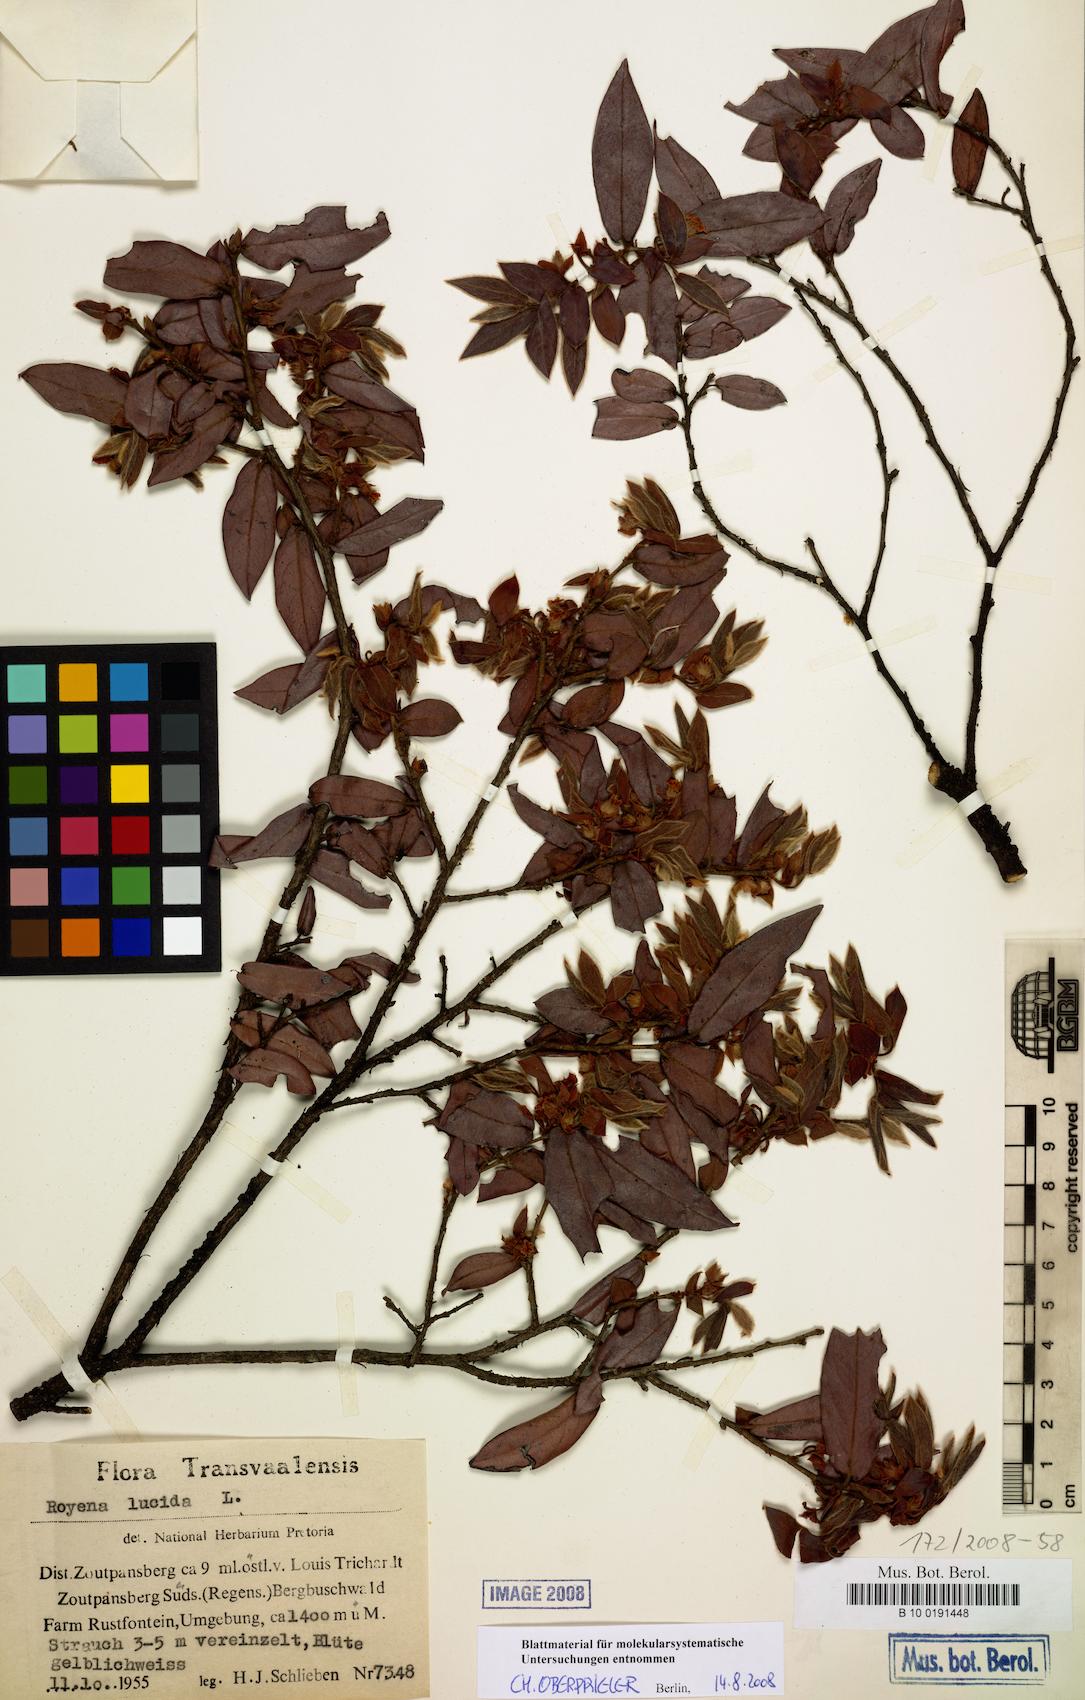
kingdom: Plantae
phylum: Tracheophyta
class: Magnoliopsida
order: Ericales
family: Ebenaceae
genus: Diospyros
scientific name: Diospyros whyteana
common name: Bladder-nut
